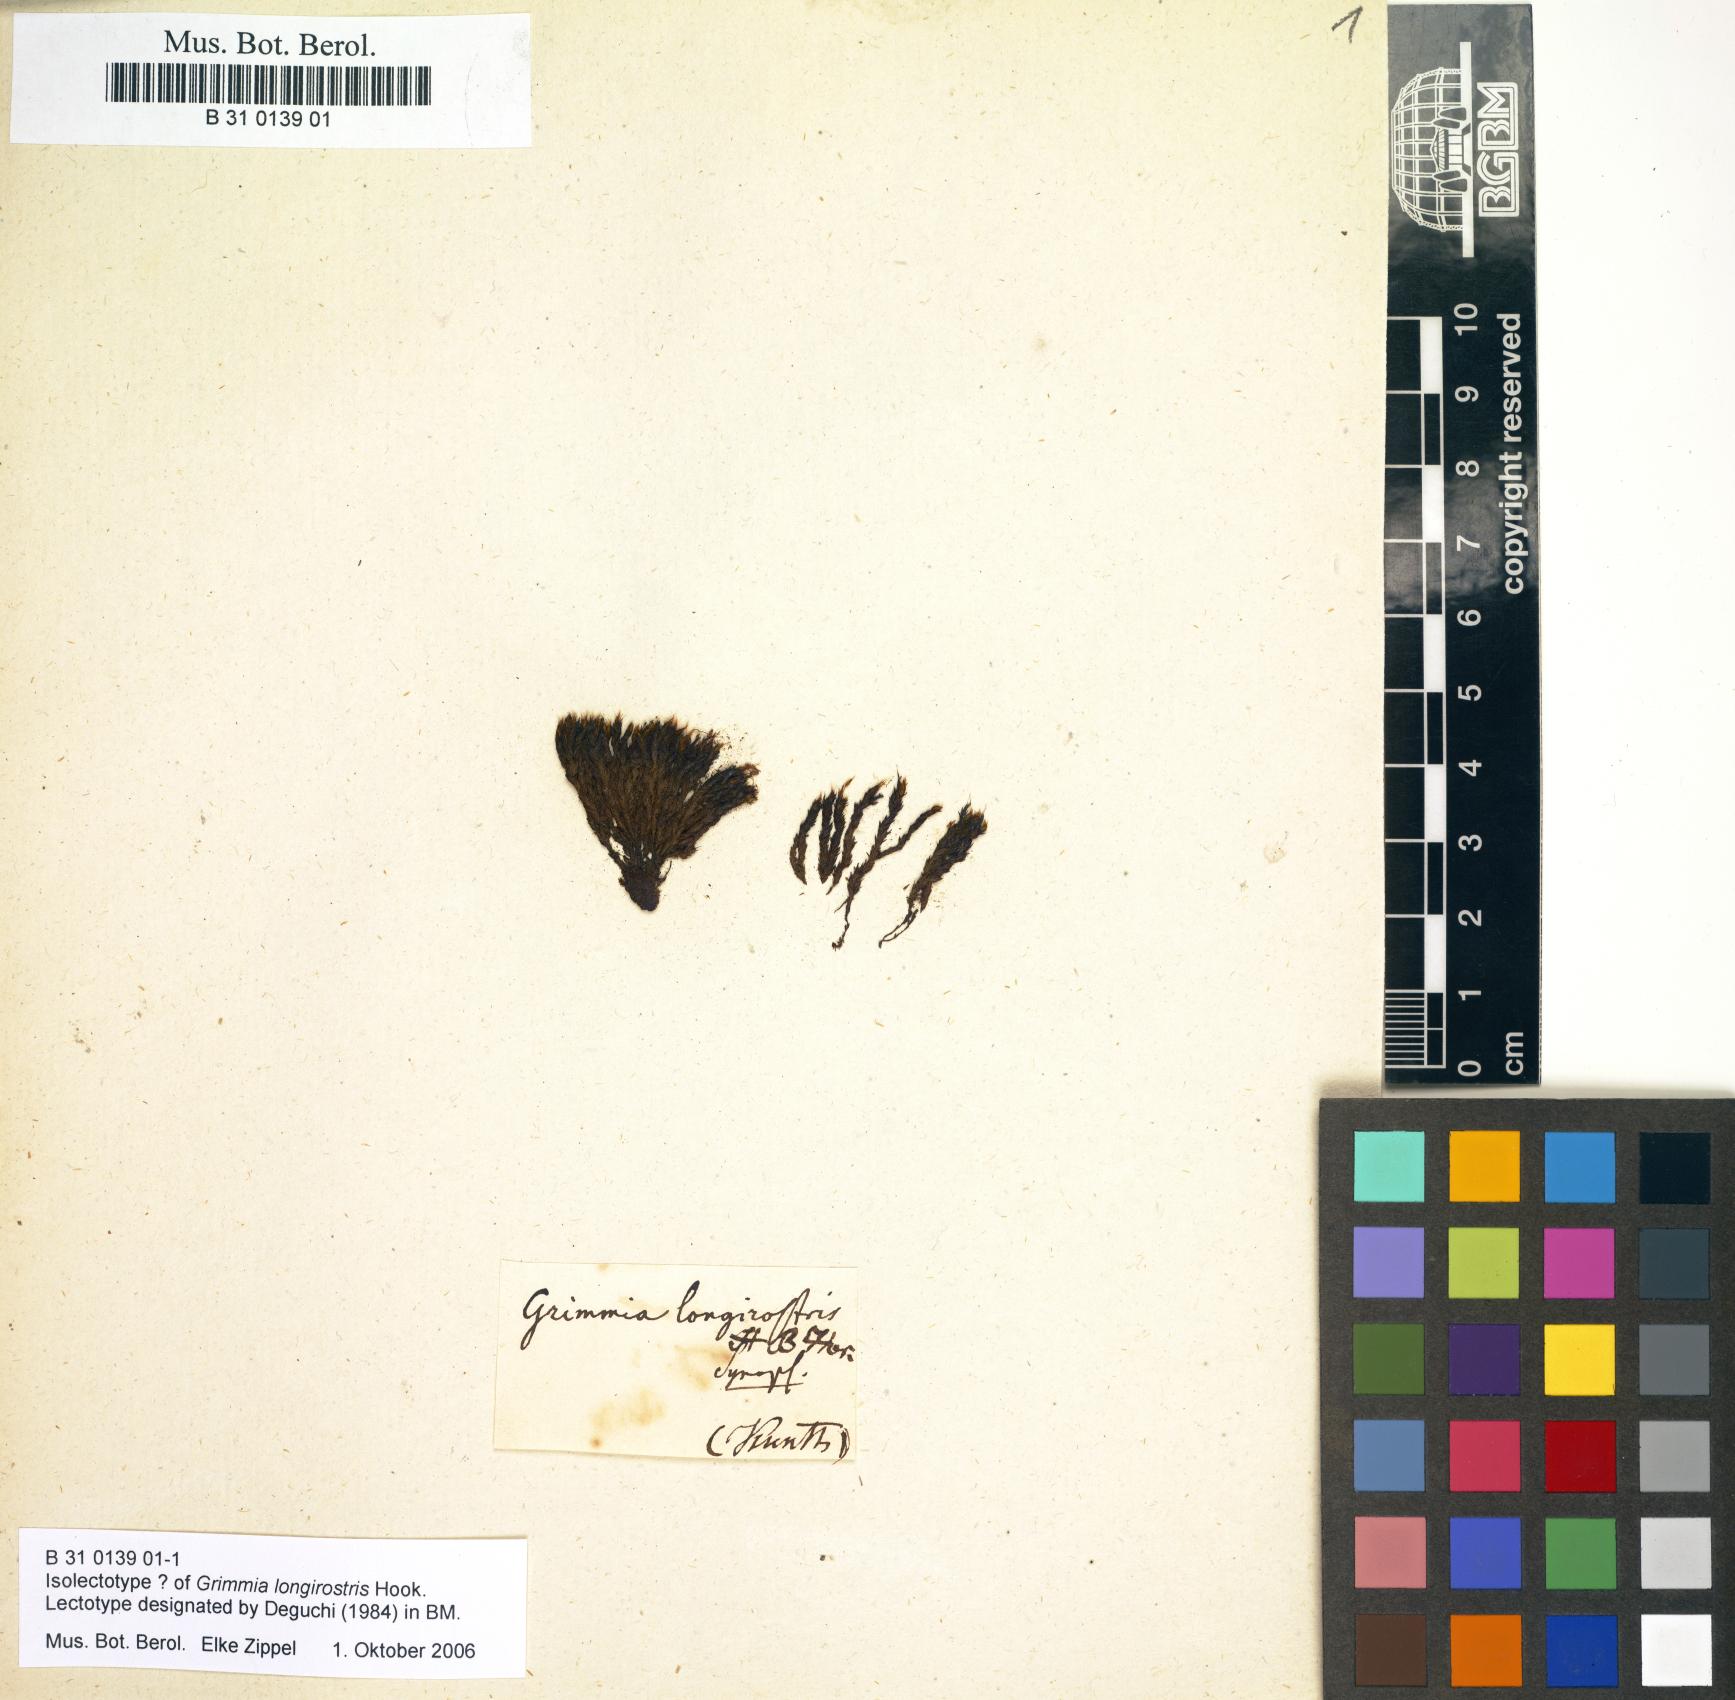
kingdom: Plantae
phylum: Bryophyta
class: Bryopsida
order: Grimmiales
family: Grimmiaceae
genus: Grimmia
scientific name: Grimmia longirostris
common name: Long-beaked grimmia
